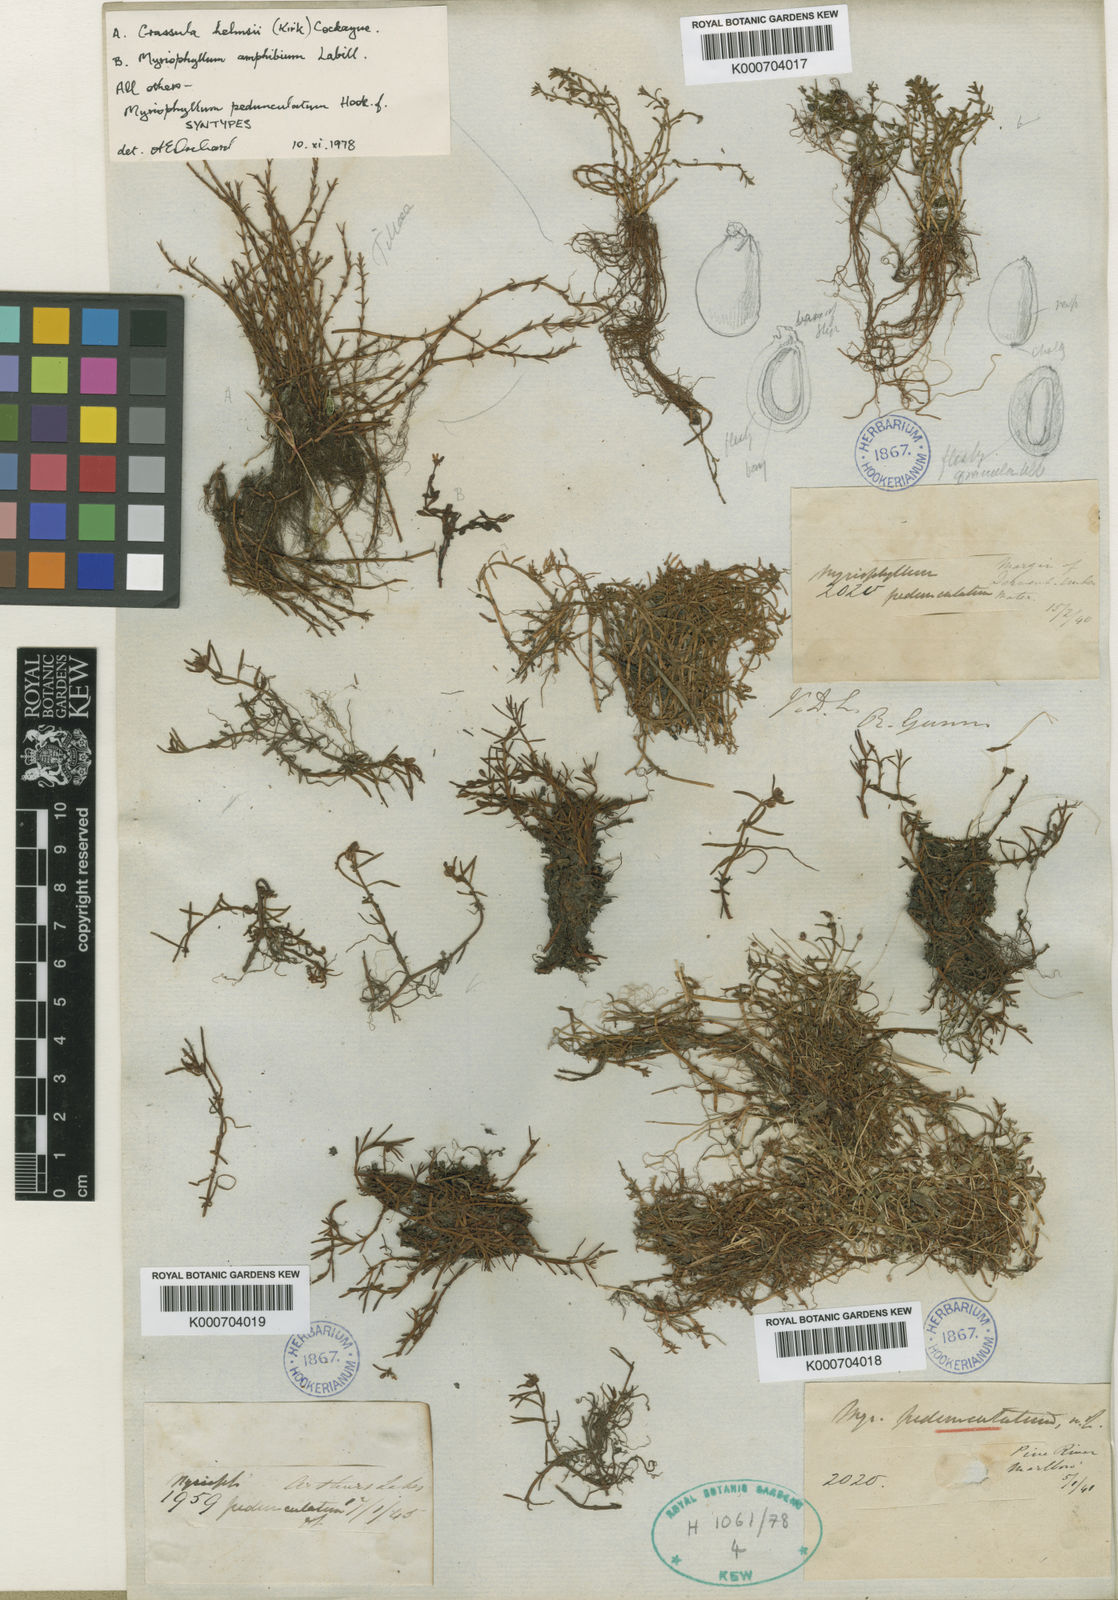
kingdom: Plantae
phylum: Tracheophyta
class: Magnoliopsida
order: Saxifragales
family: Haloragaceae
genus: Myriophyllum
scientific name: Myriophyllum pedunculatum
